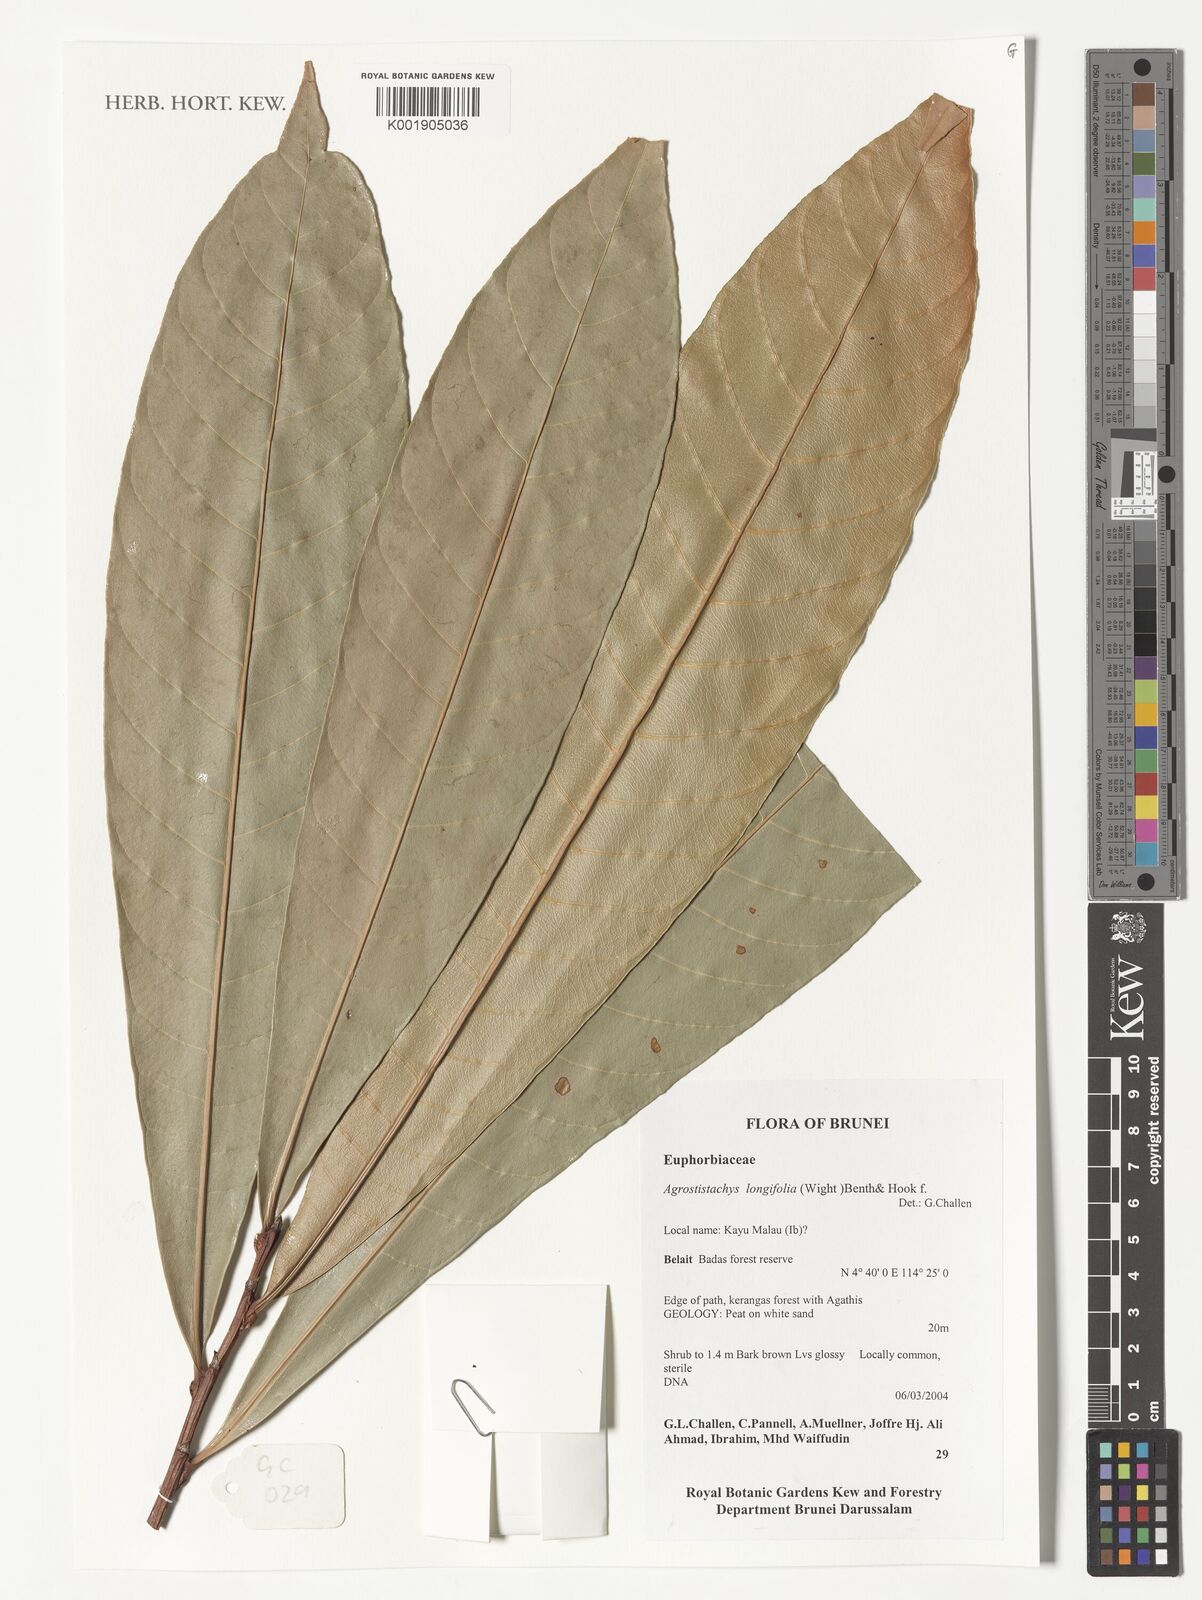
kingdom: Plantae
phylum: Tracheophyta
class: Magnoliopsida
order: Malpighiales
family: Euphorbiaceae
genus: Agrostistachys
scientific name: Agrostistachys gaudichaudii
